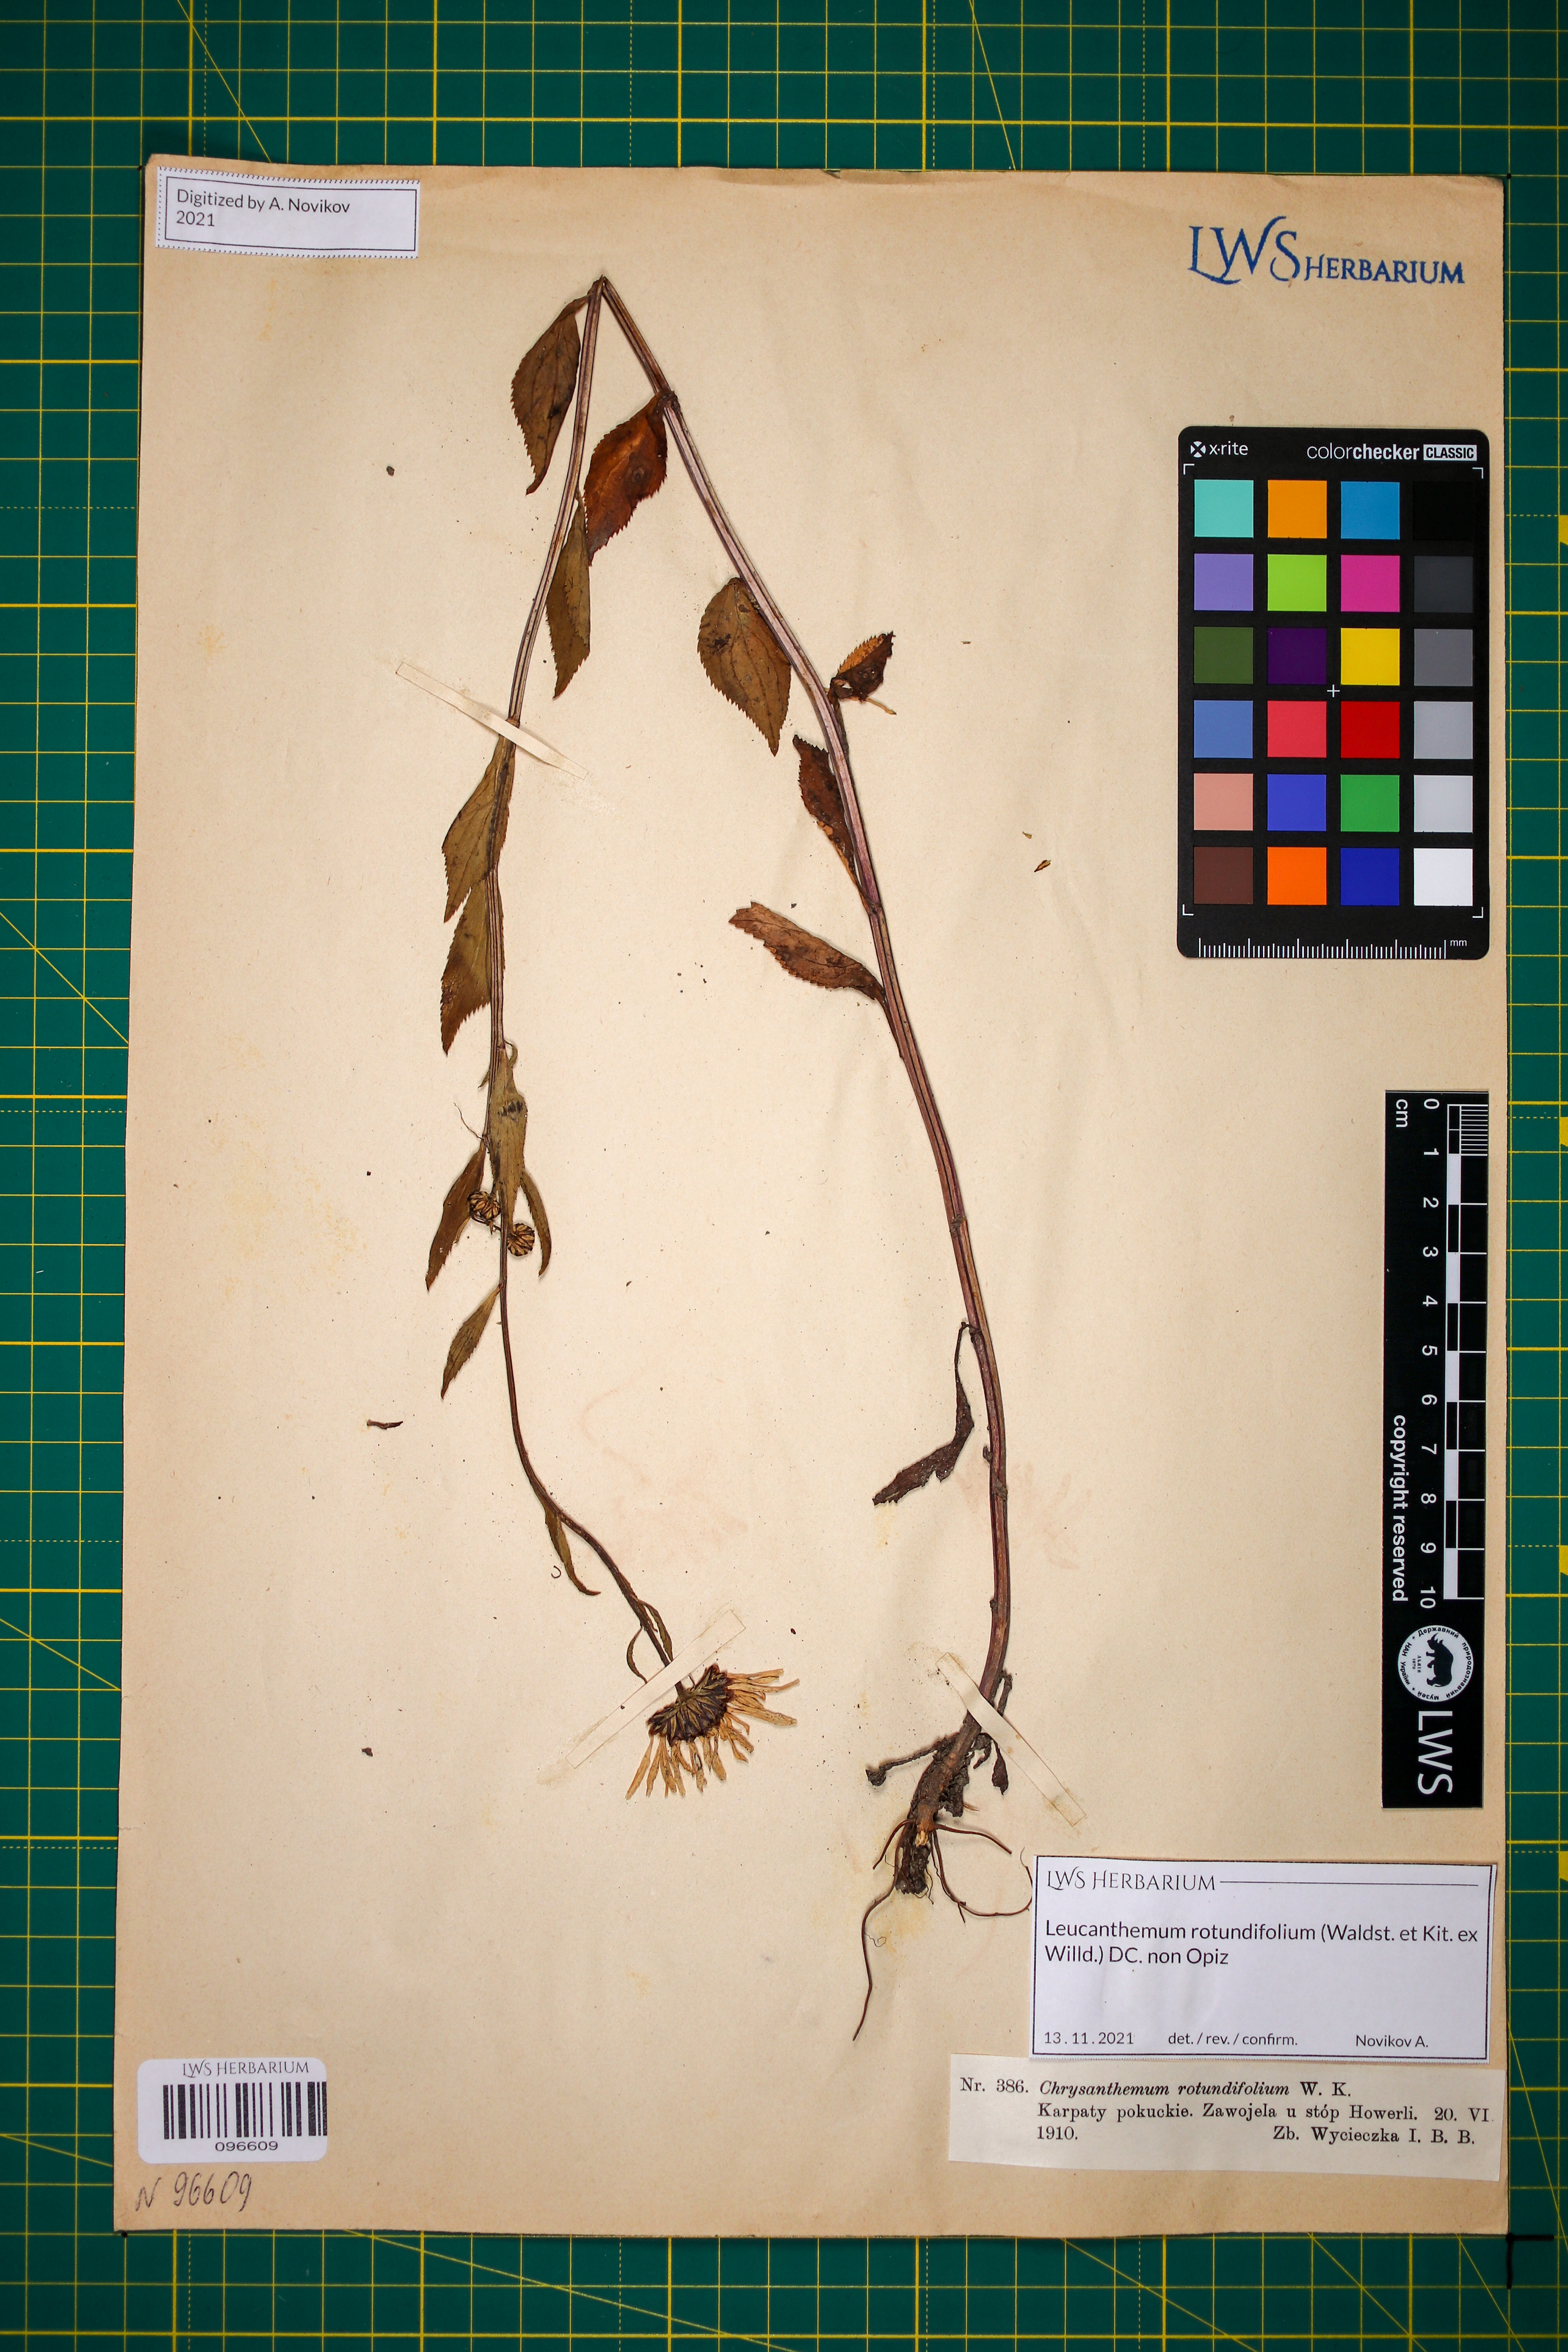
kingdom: Plantae
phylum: Tracheophyta
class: Magnoliopsida
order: Asterales
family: Asteraceae
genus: Leucanthemum
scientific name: Leucanthemum rotundifolium
